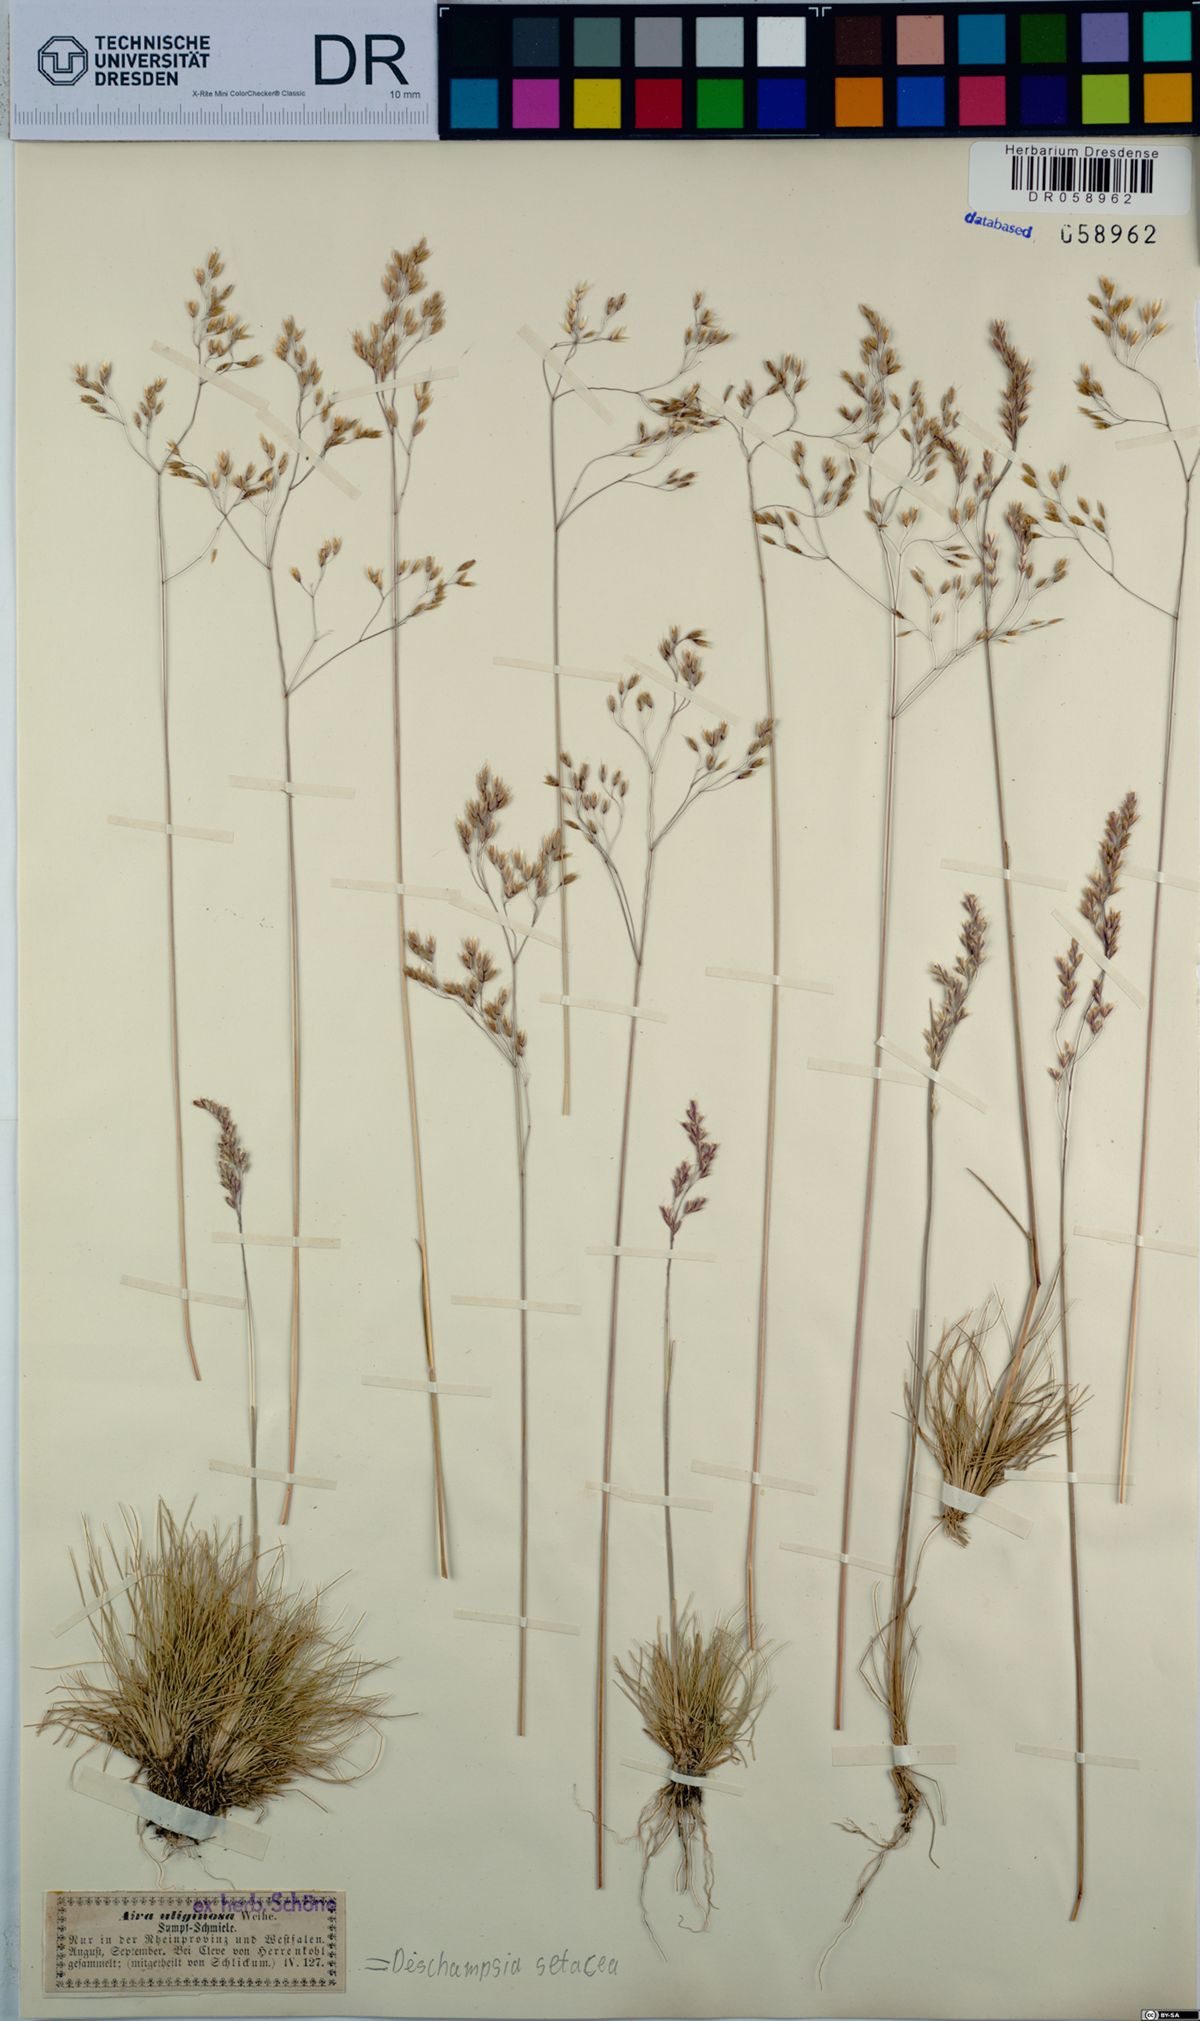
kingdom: Plantae
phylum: Tracheophyta
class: Liliopsida
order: Poales
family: Poaceae
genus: Deschampsia
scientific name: Deschampsia setacea
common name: Bog hair-grass
